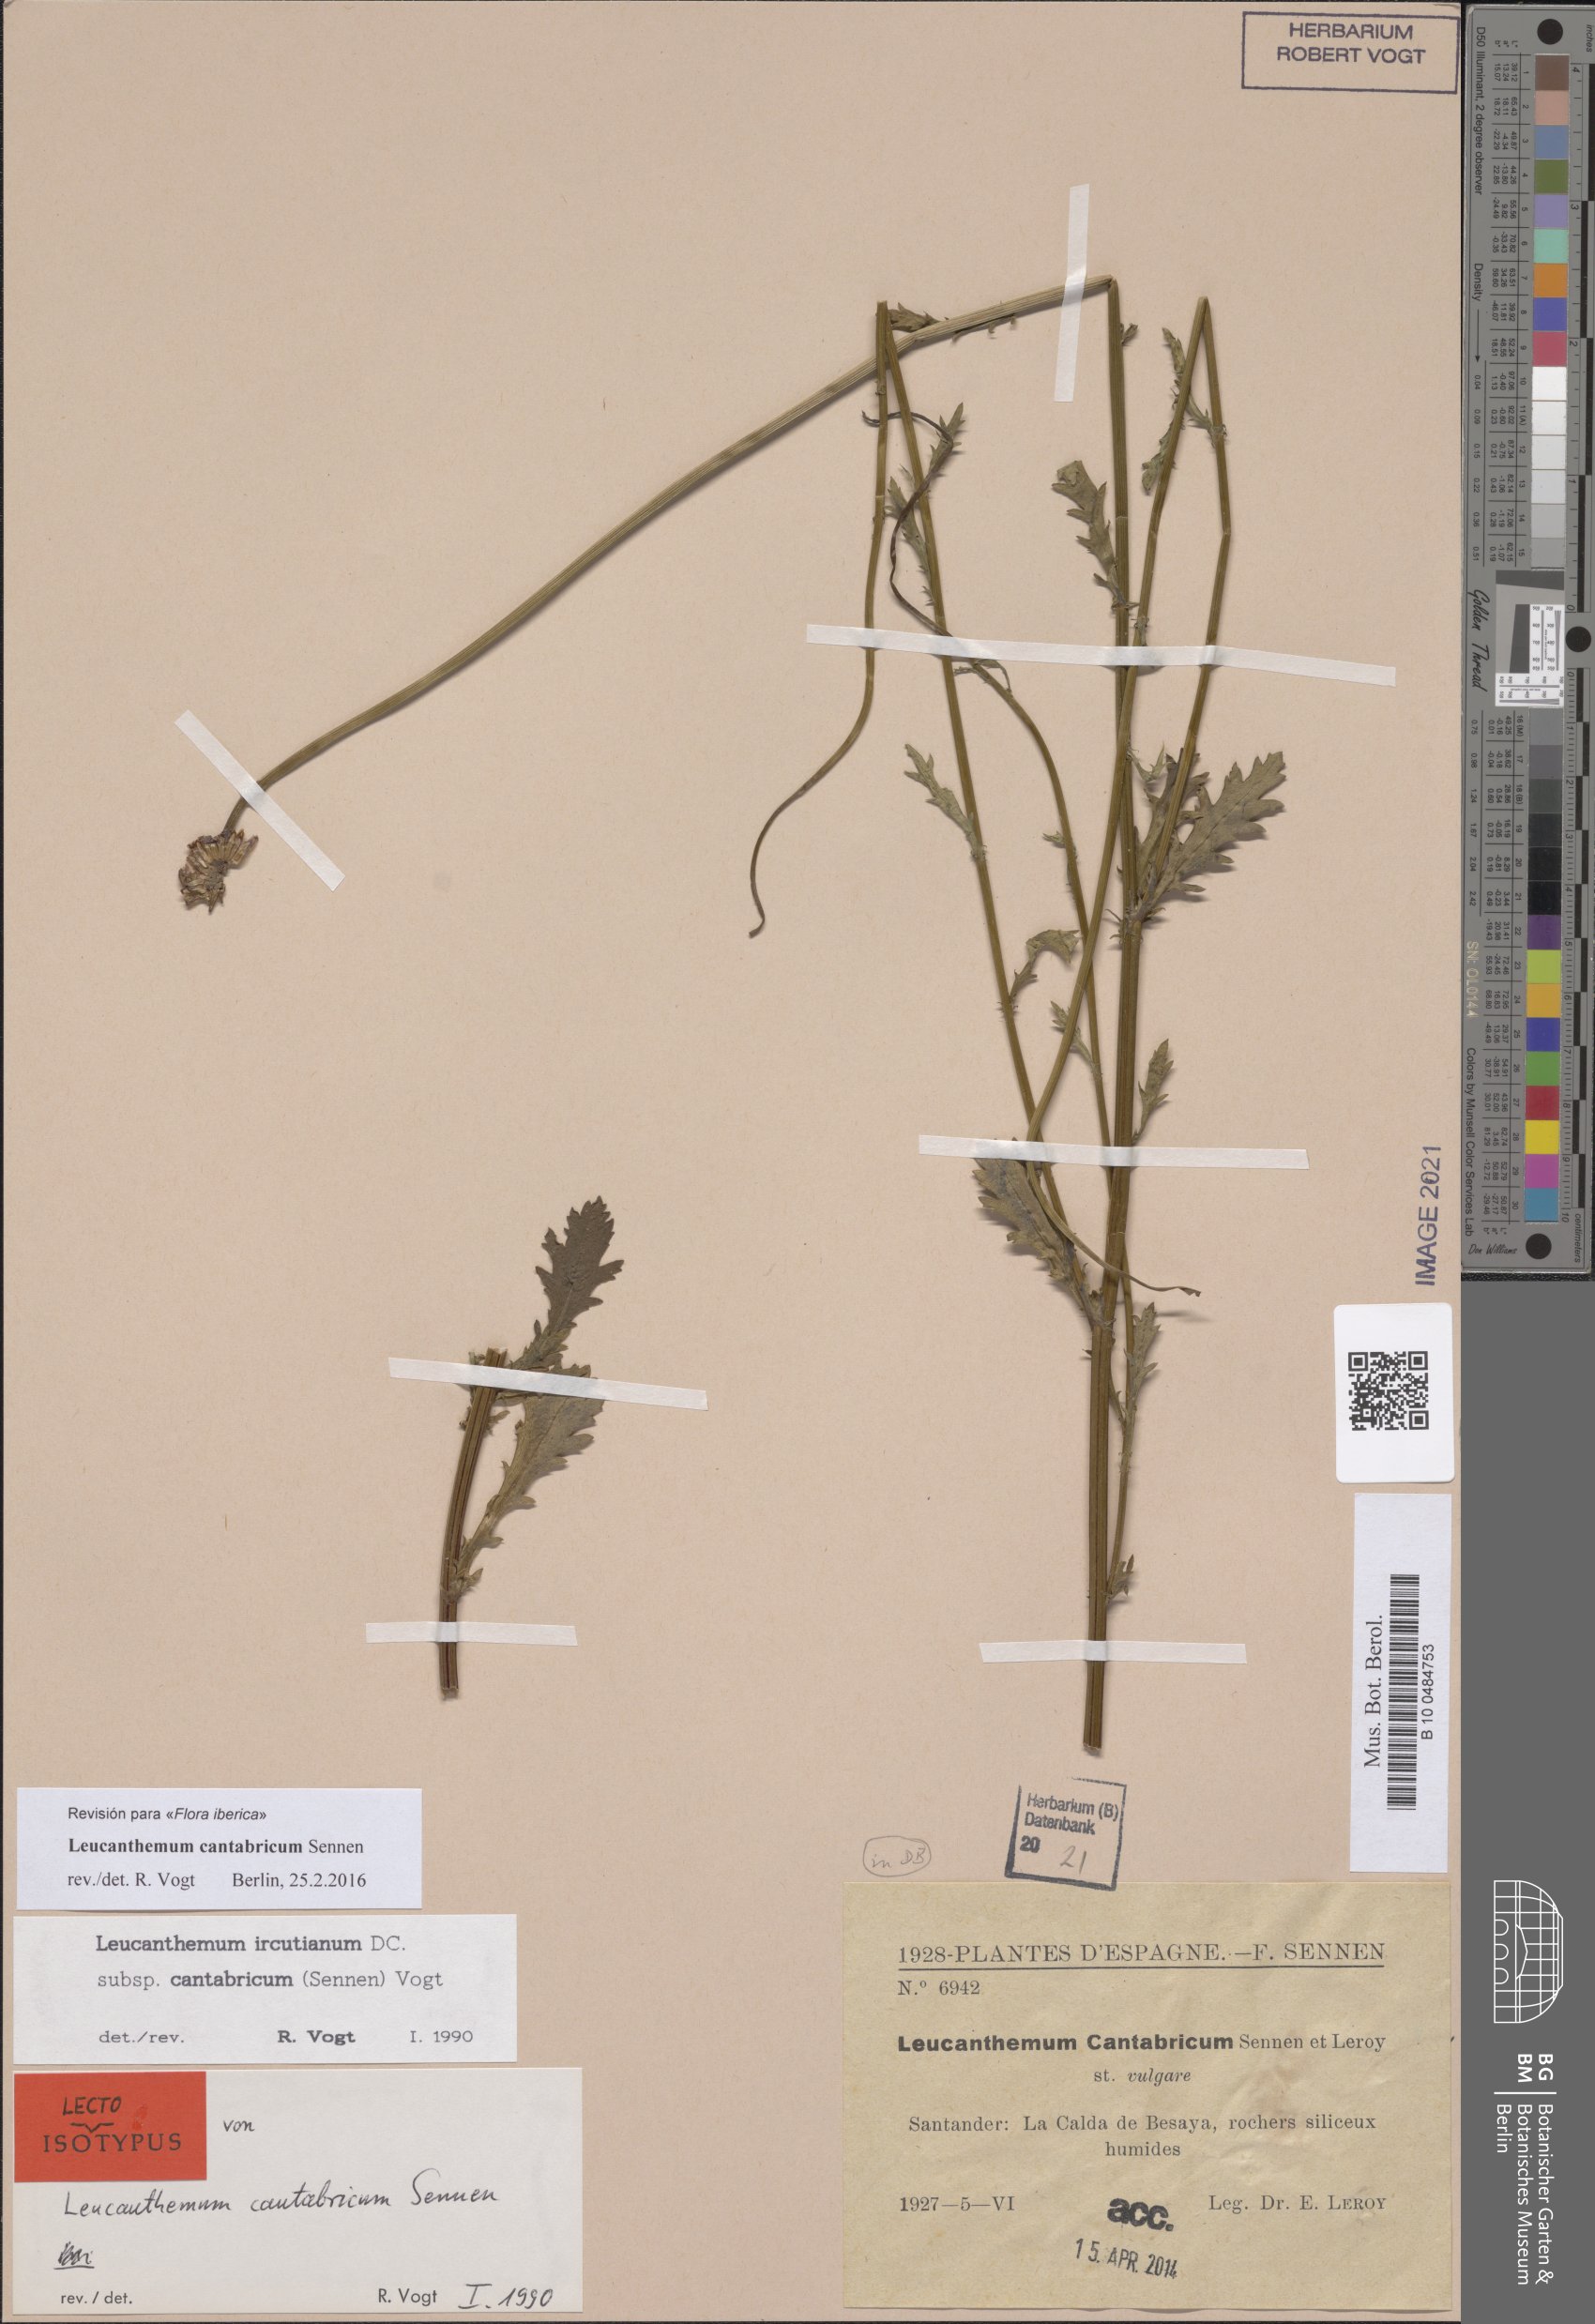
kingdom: Plantae
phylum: Tracheophyta
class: Magnoliopsida
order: Asterales
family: Asteraceae
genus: Leucanthemum
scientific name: Leucanthemum cantabricum
